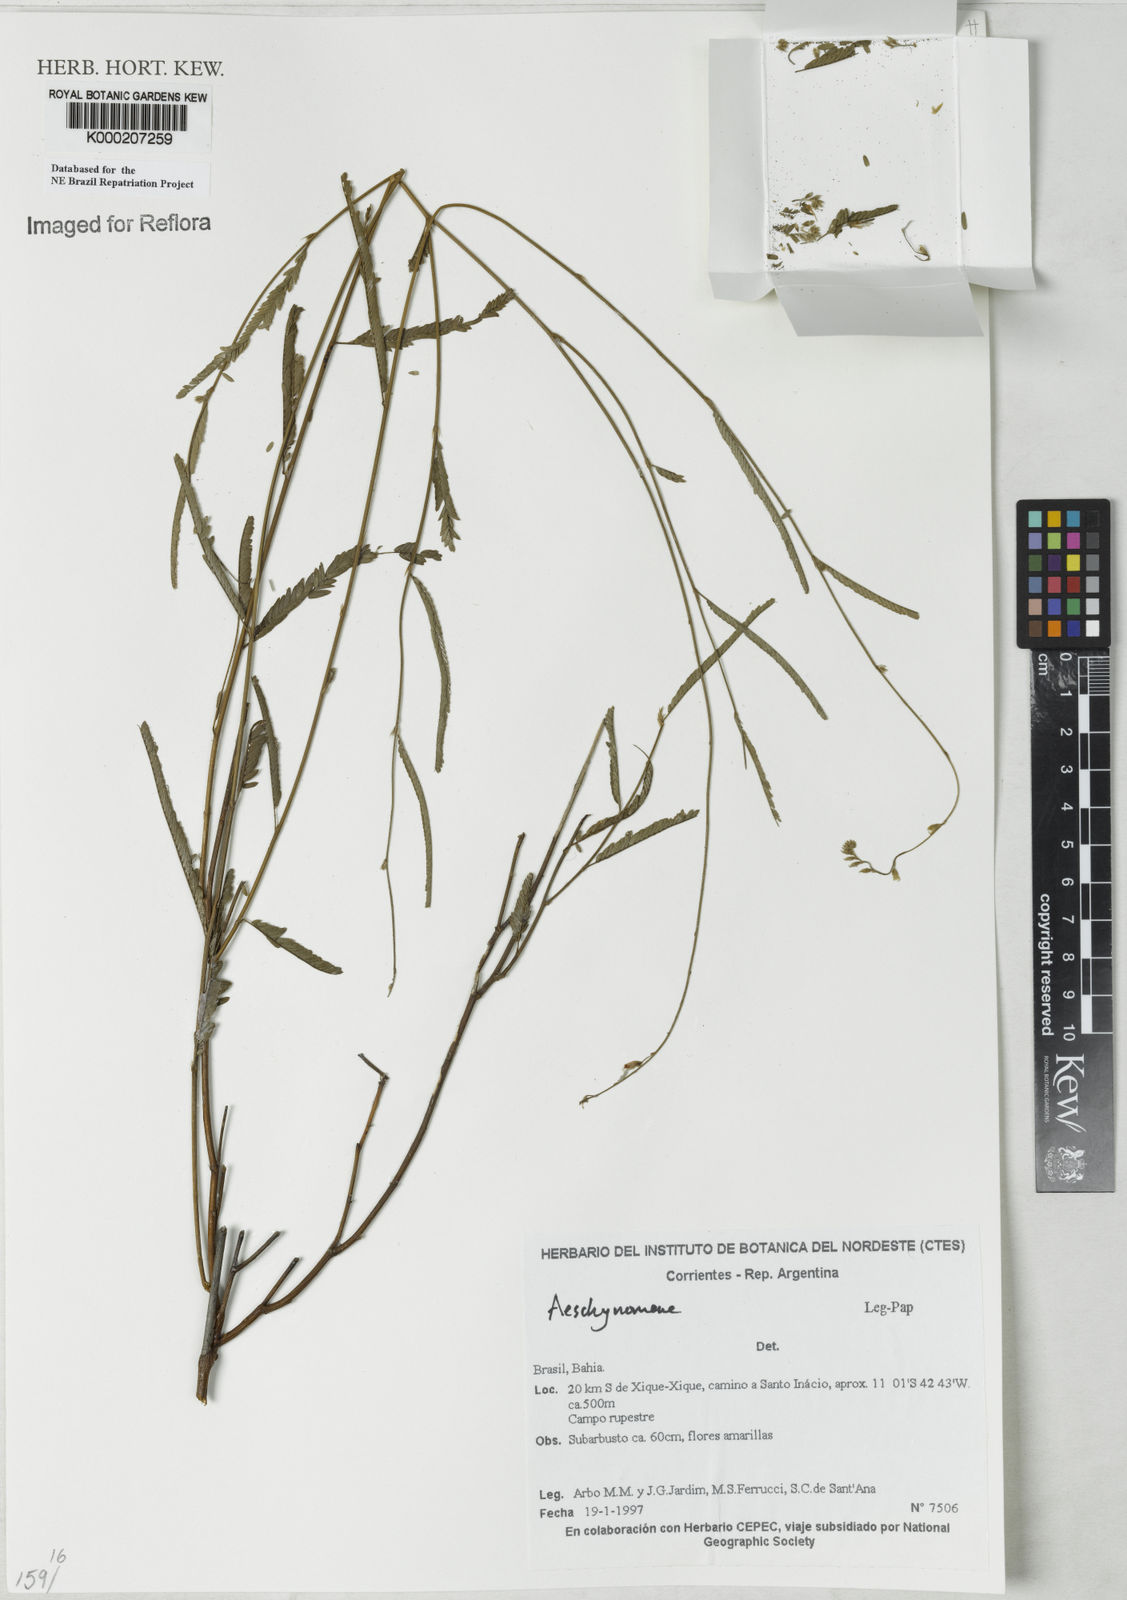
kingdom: Plantae
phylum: Tracheophyta
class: Magnoliopsida
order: Fabales
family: Fabaceae
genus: Aeschynomene
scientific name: Aeschynomene
